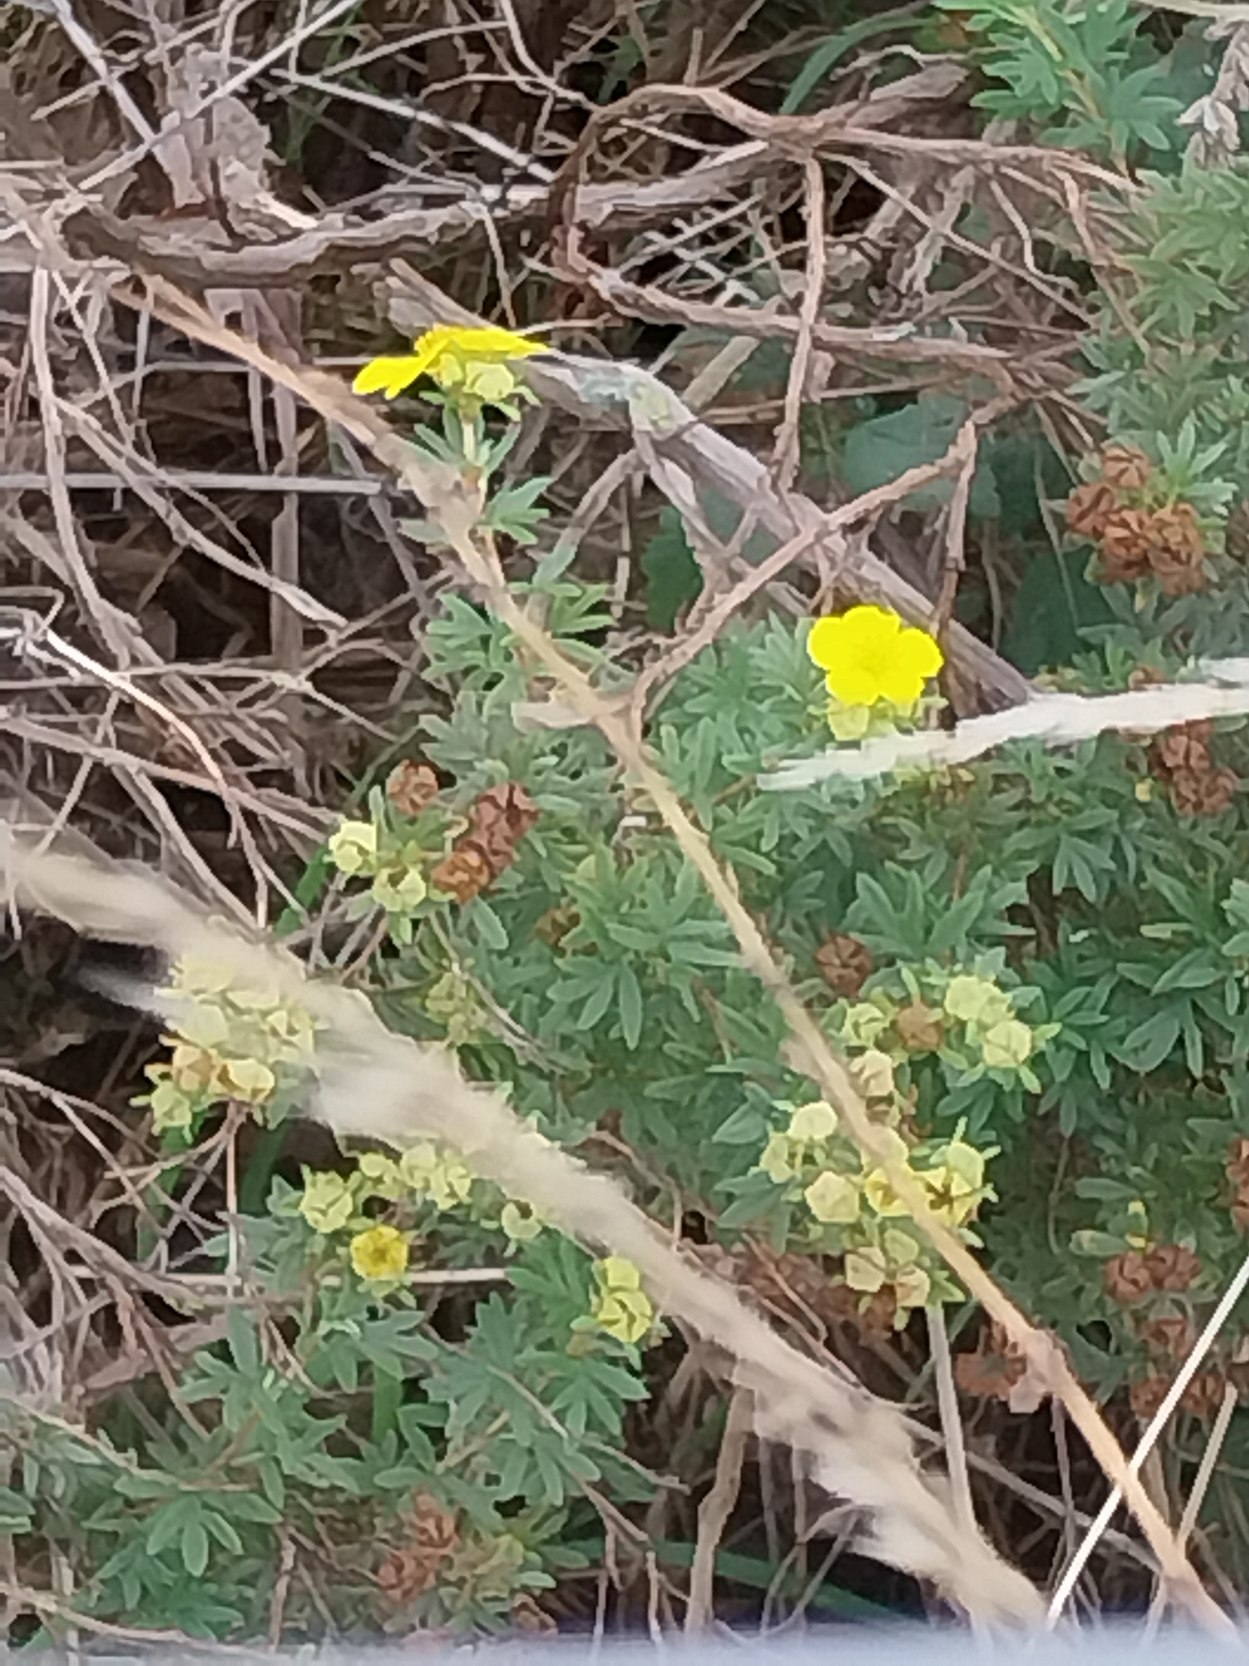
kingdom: Plantae
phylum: Tracheophyta
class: Magnoliopsida
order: Rosales
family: Rosaceae
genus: Dasiphora
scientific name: Dasiphora fruticosa
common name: Buskpotentil
